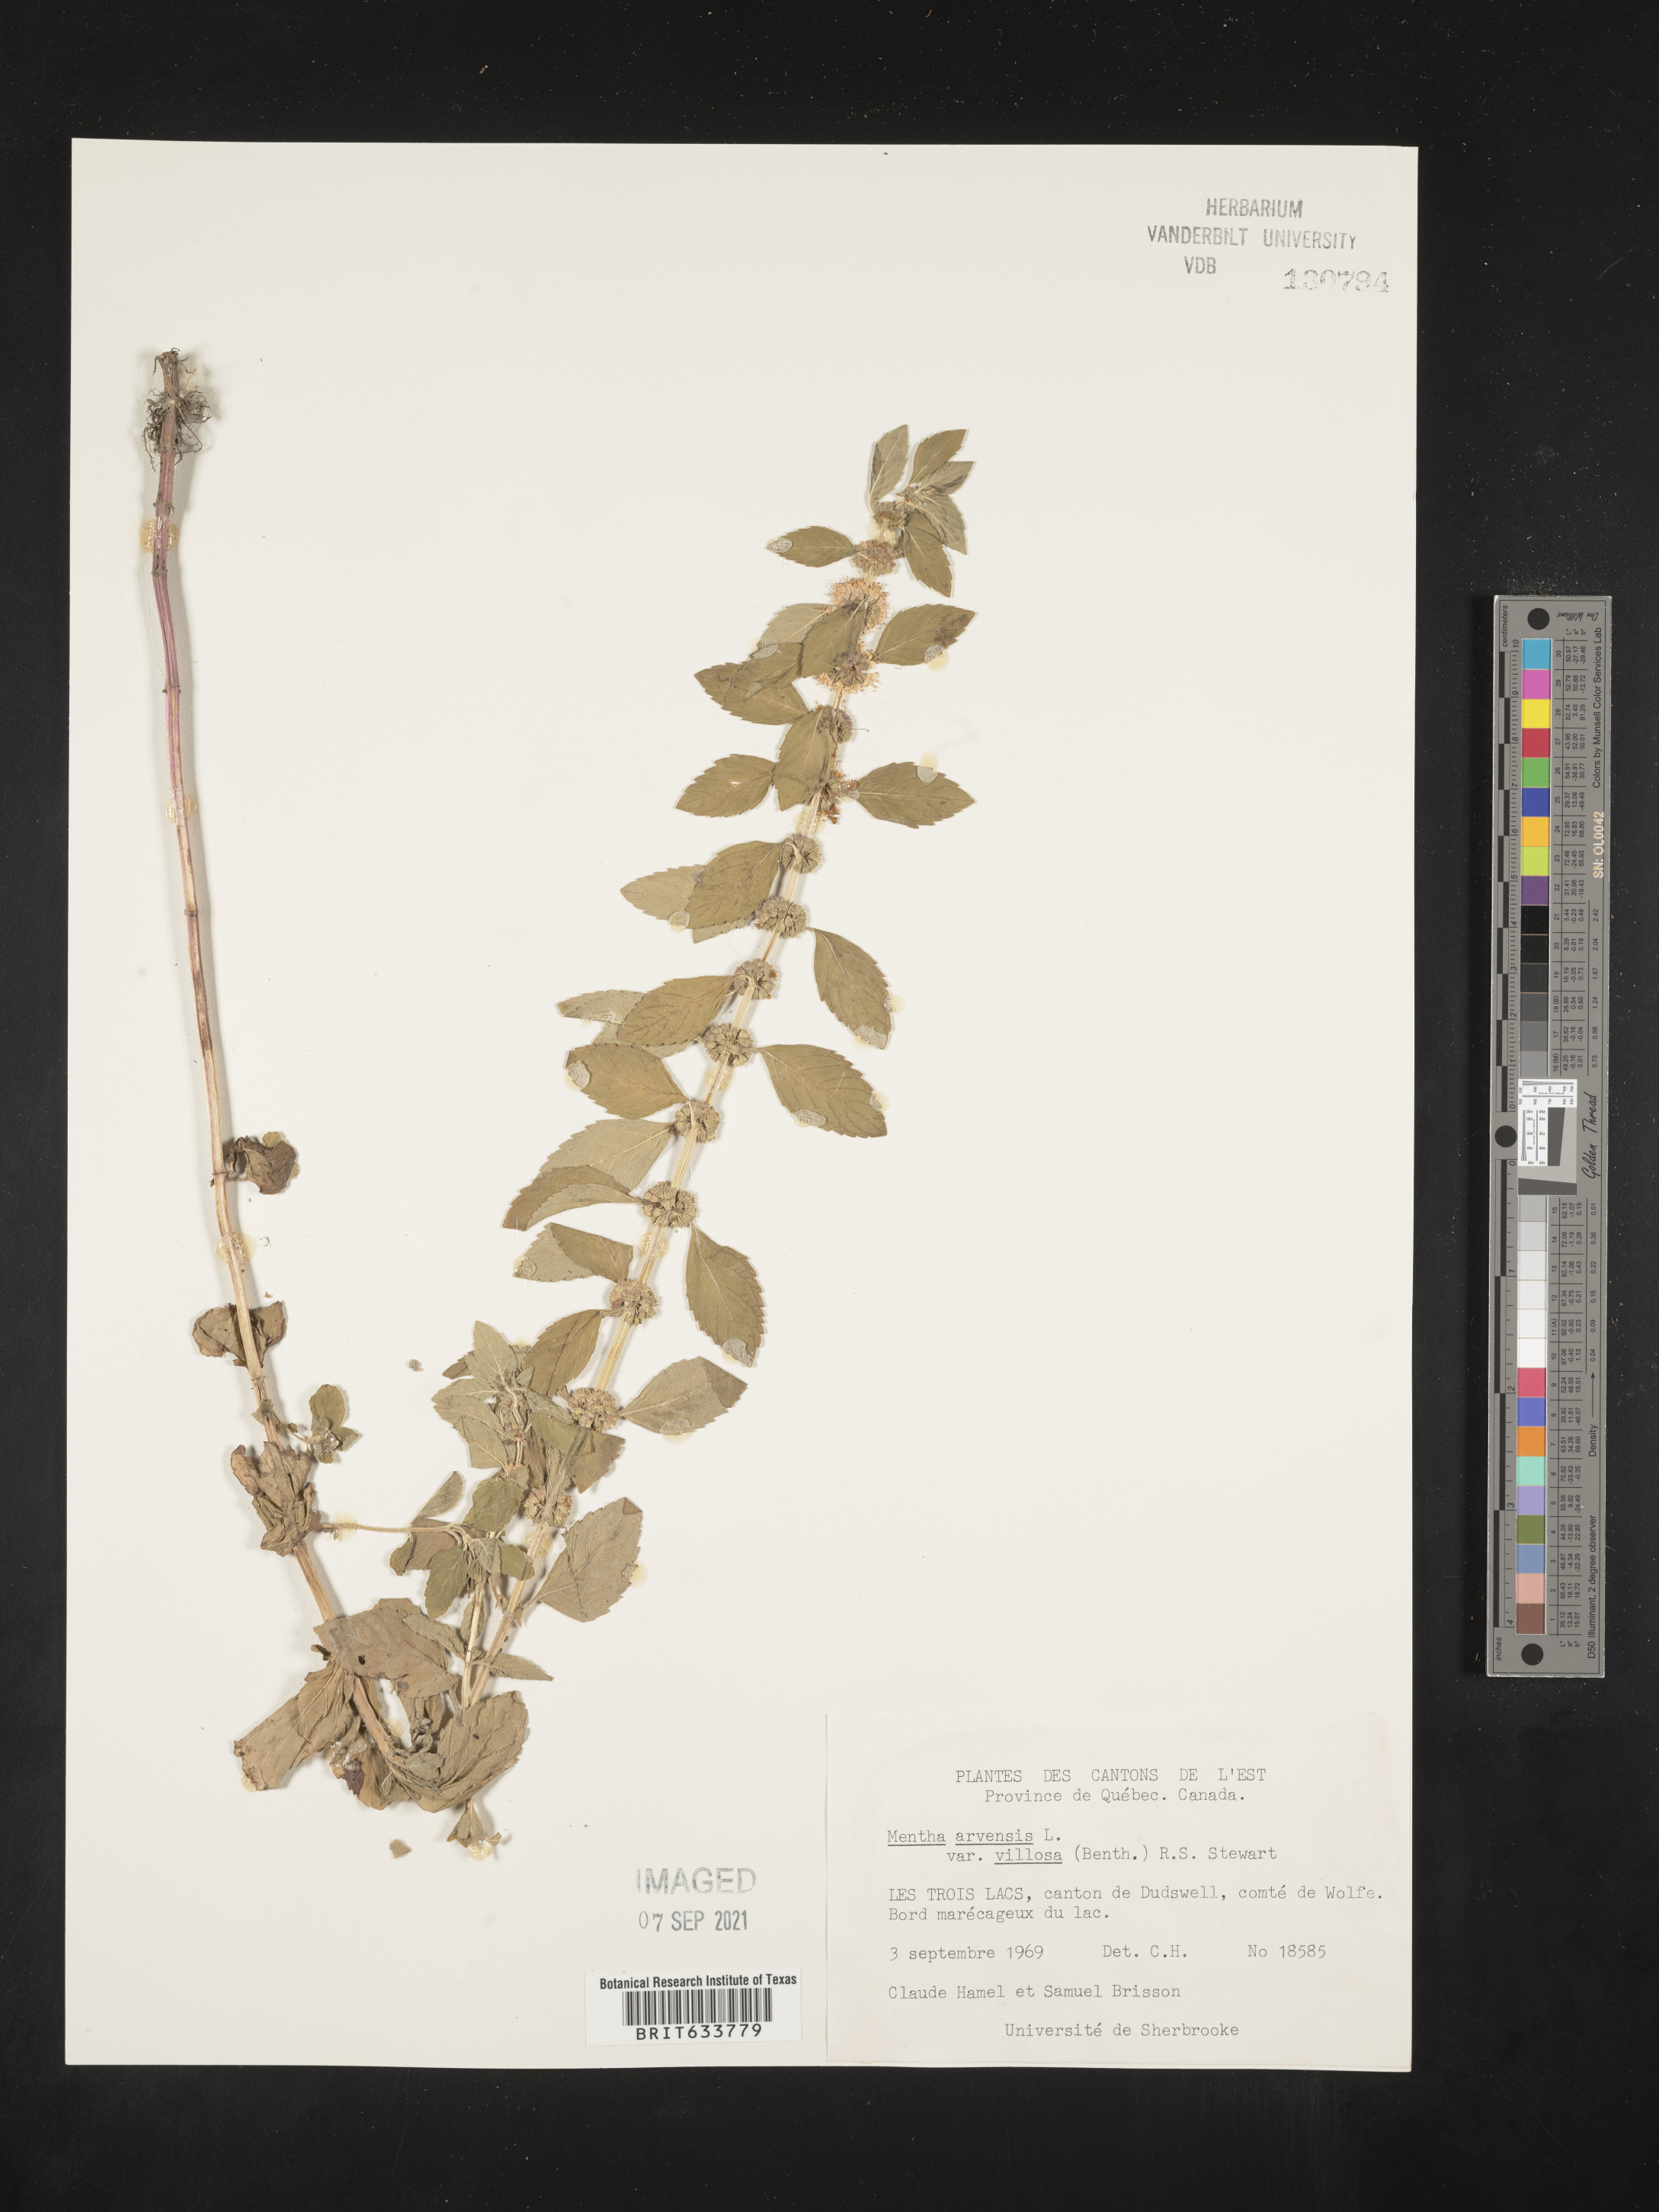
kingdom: Plantae
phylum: Tracheophyta
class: Magnoliopsida
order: Lamiales
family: Lamiaceae
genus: Mentha
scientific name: Mentha
